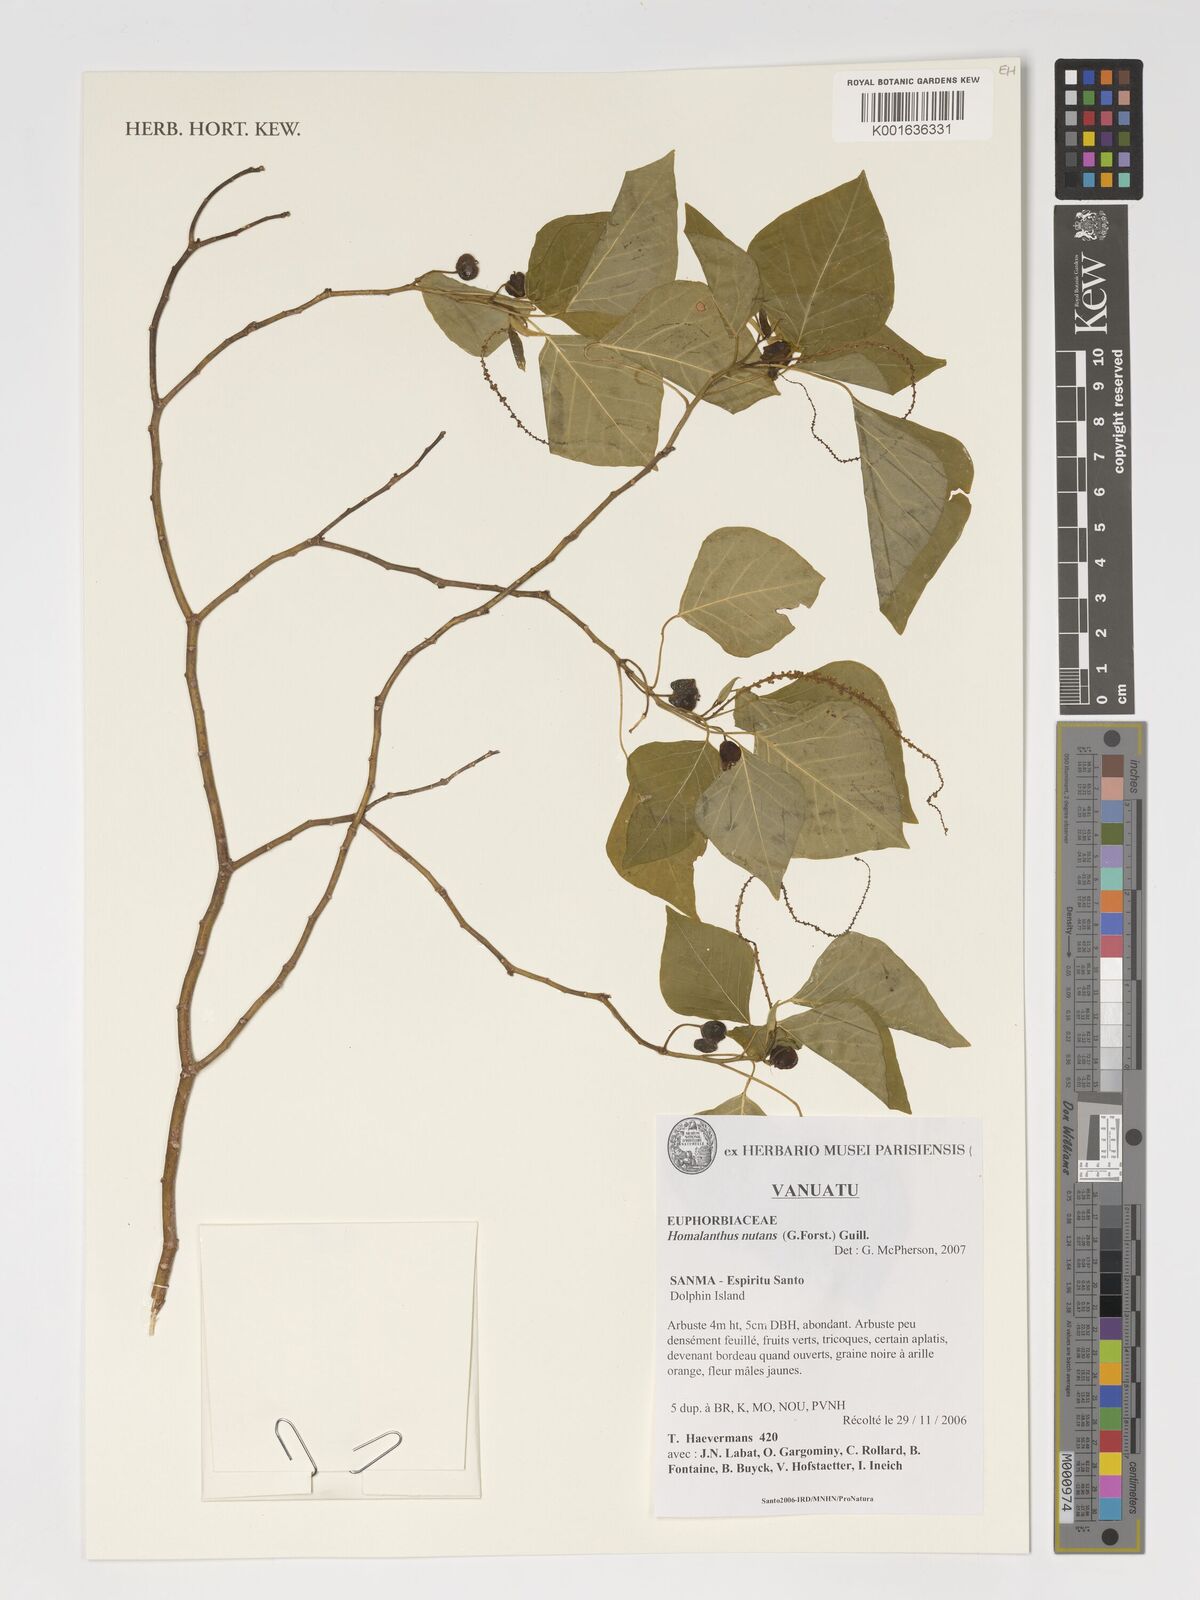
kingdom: Plantae
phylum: Tracheophyta
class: Magnoliopsida
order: Malpighiales
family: Euphorbiaceae
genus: Homalanthus
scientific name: Homalanthus nutans
